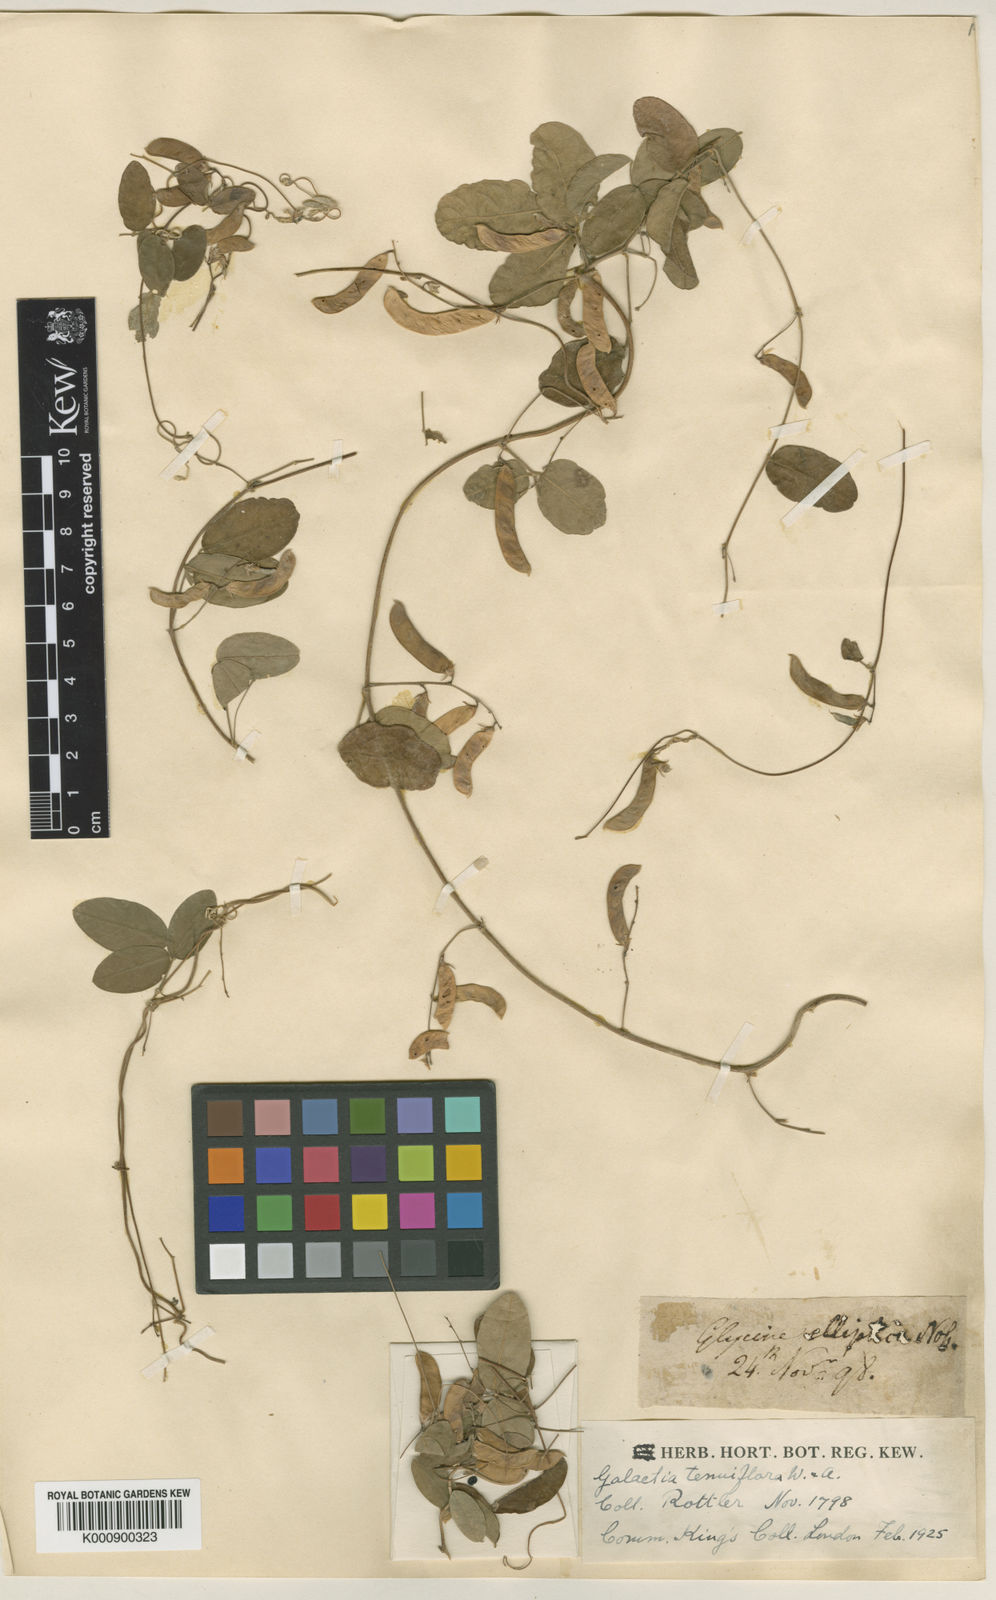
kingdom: Plantae
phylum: Tracheophyta
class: Magnoliopsida
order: Fabales
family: Fabaceae
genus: Galactia
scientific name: Galactia striata
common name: Florida hammock milkpea
